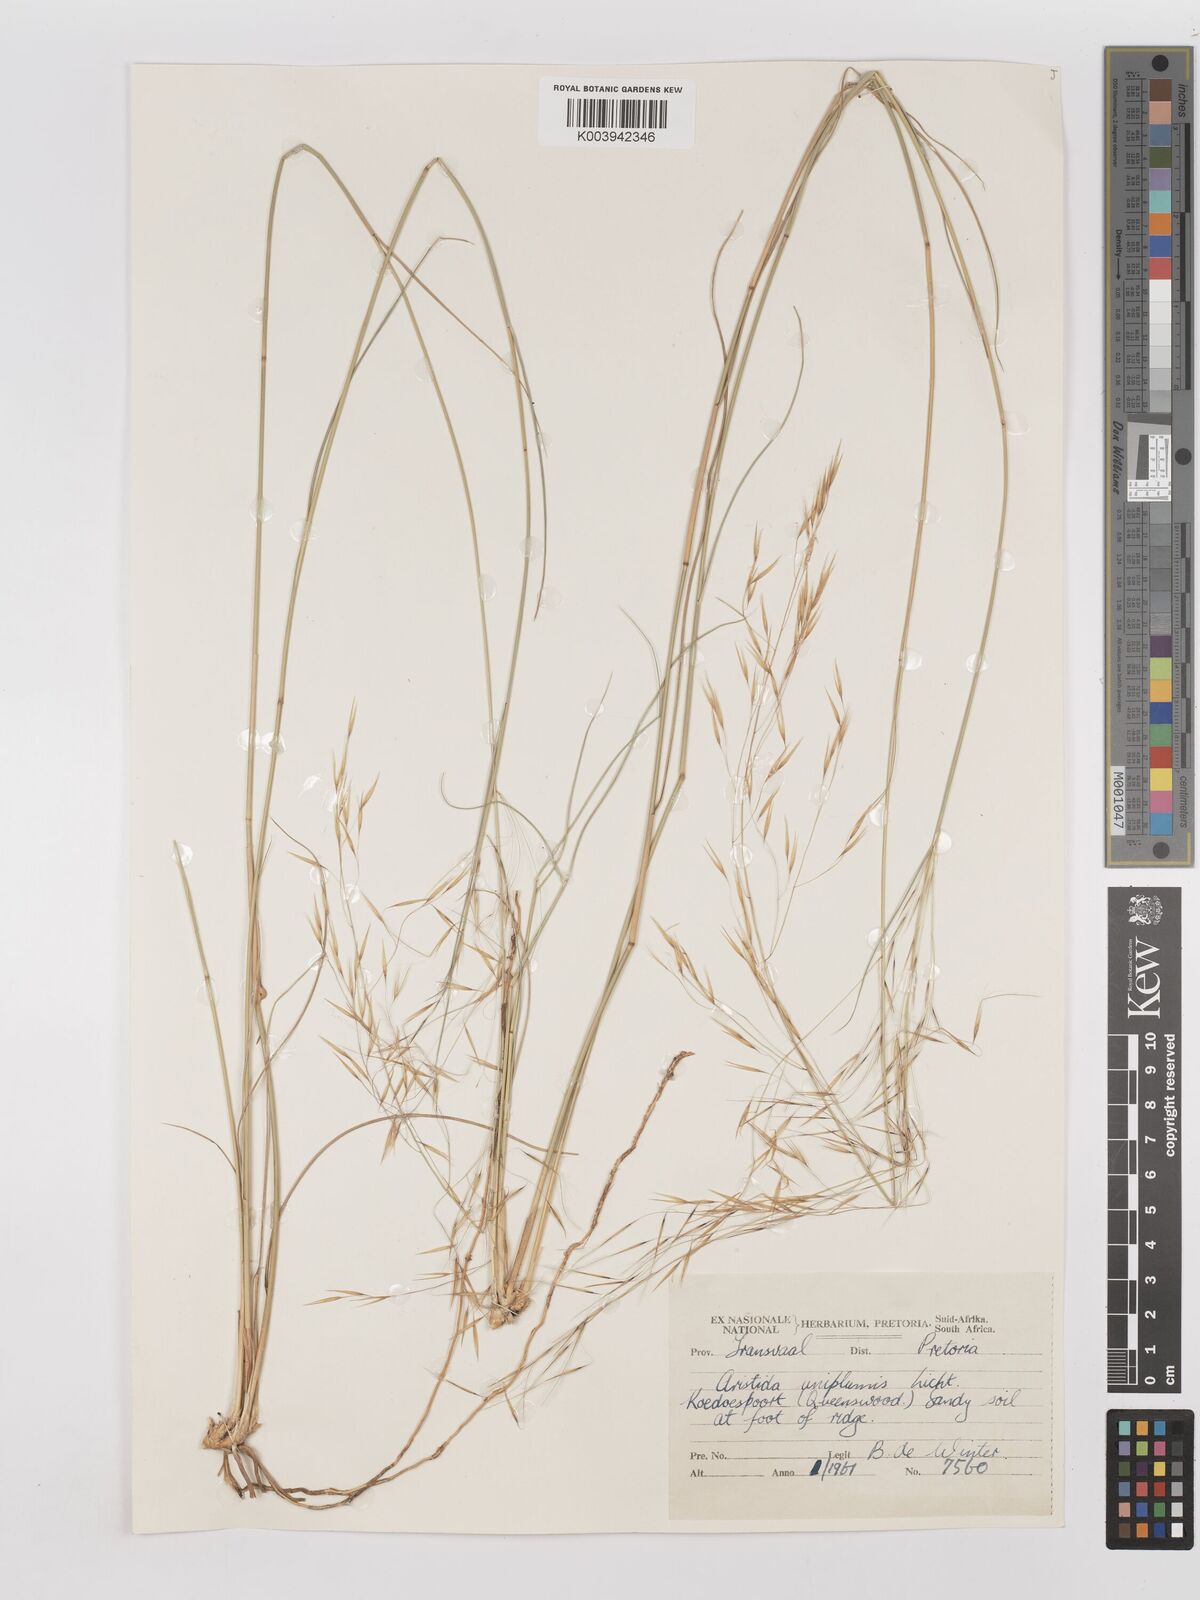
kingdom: Plantae
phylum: Tracheophyta
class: Liliopsida
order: Poales
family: Poaceae
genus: Stipagrostis
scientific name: Stipagrostis uniplumis
